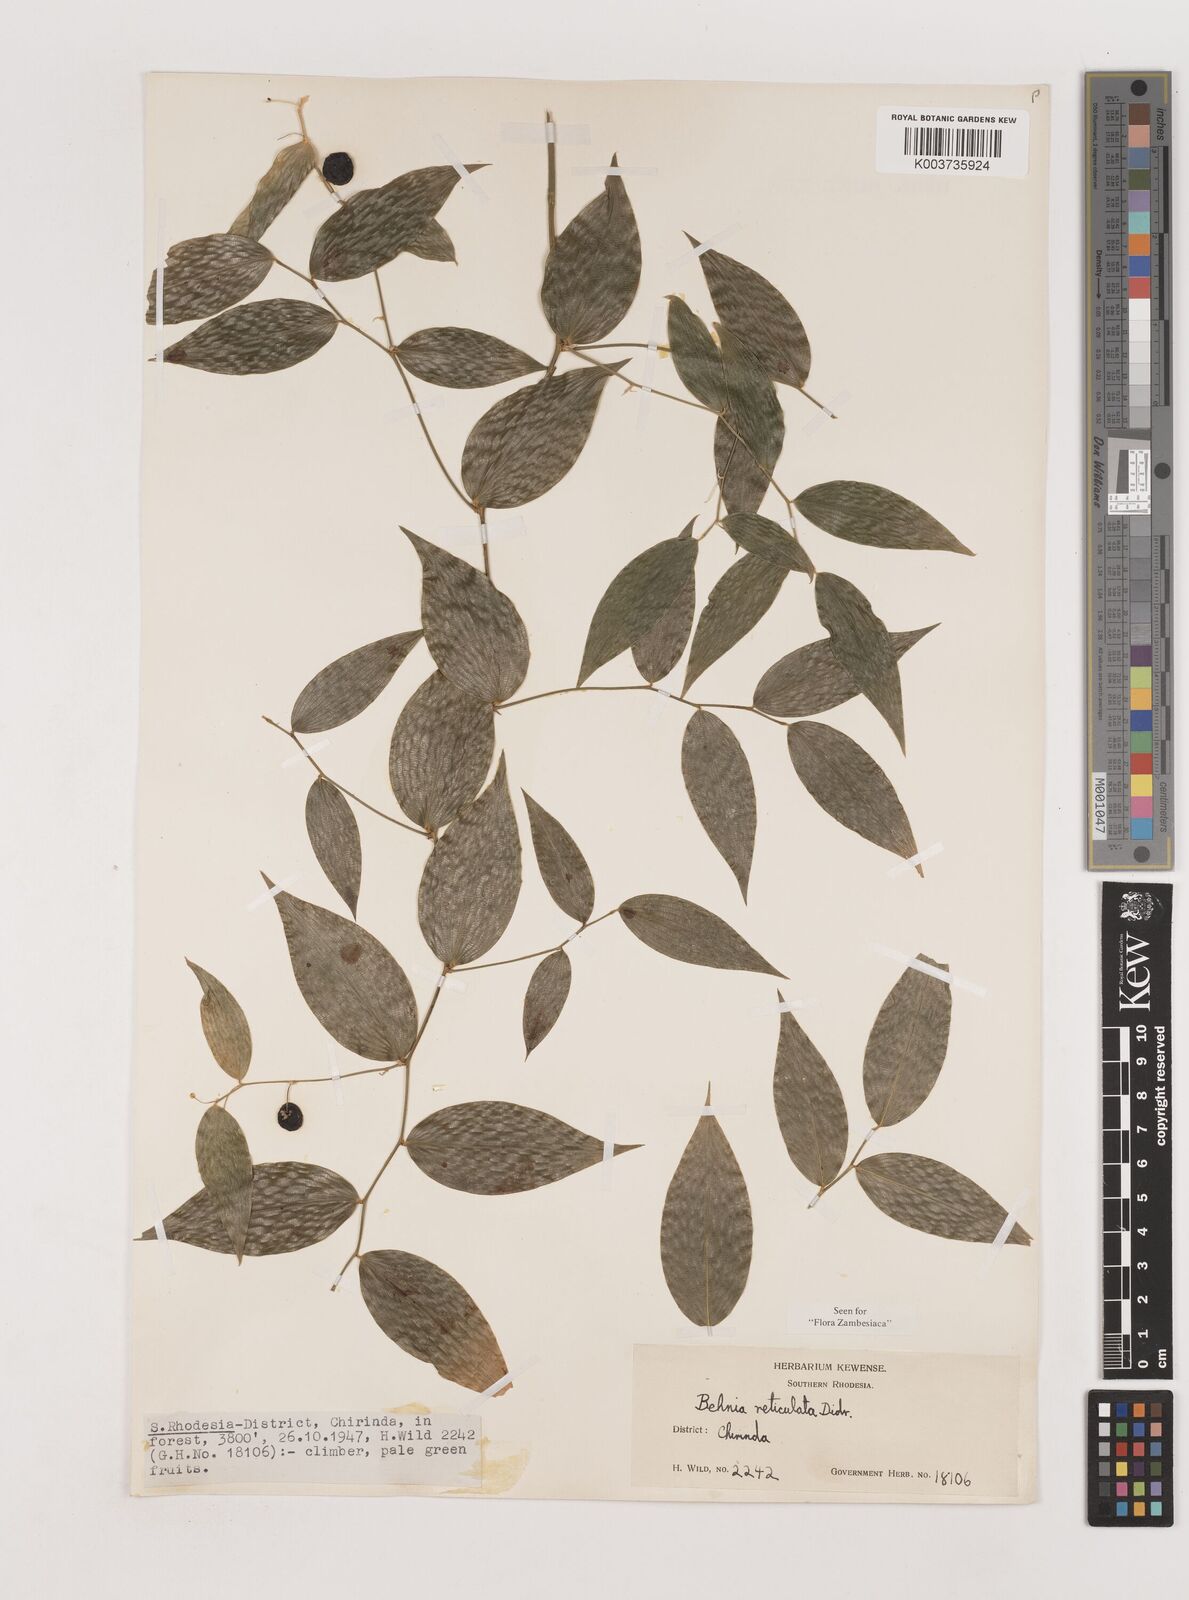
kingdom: Plantae
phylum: Tracheophyta
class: Liliopsida
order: Asparagales
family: Asparagaceae
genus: Behnia
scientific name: Behnia reticulata
